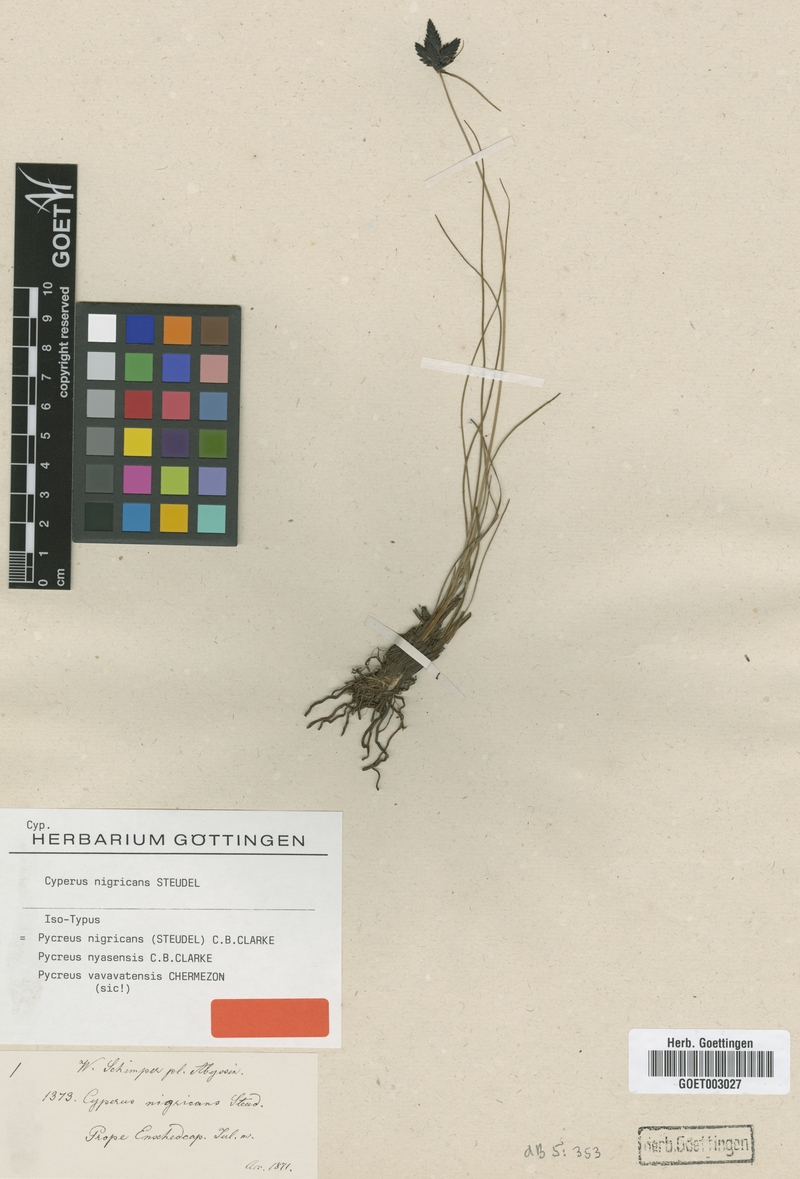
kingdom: Plantae
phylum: Tracheophyta
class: Liliopsida
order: Poales
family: Cyperaceae
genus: Cyperus
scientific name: Cyperus nigricans
